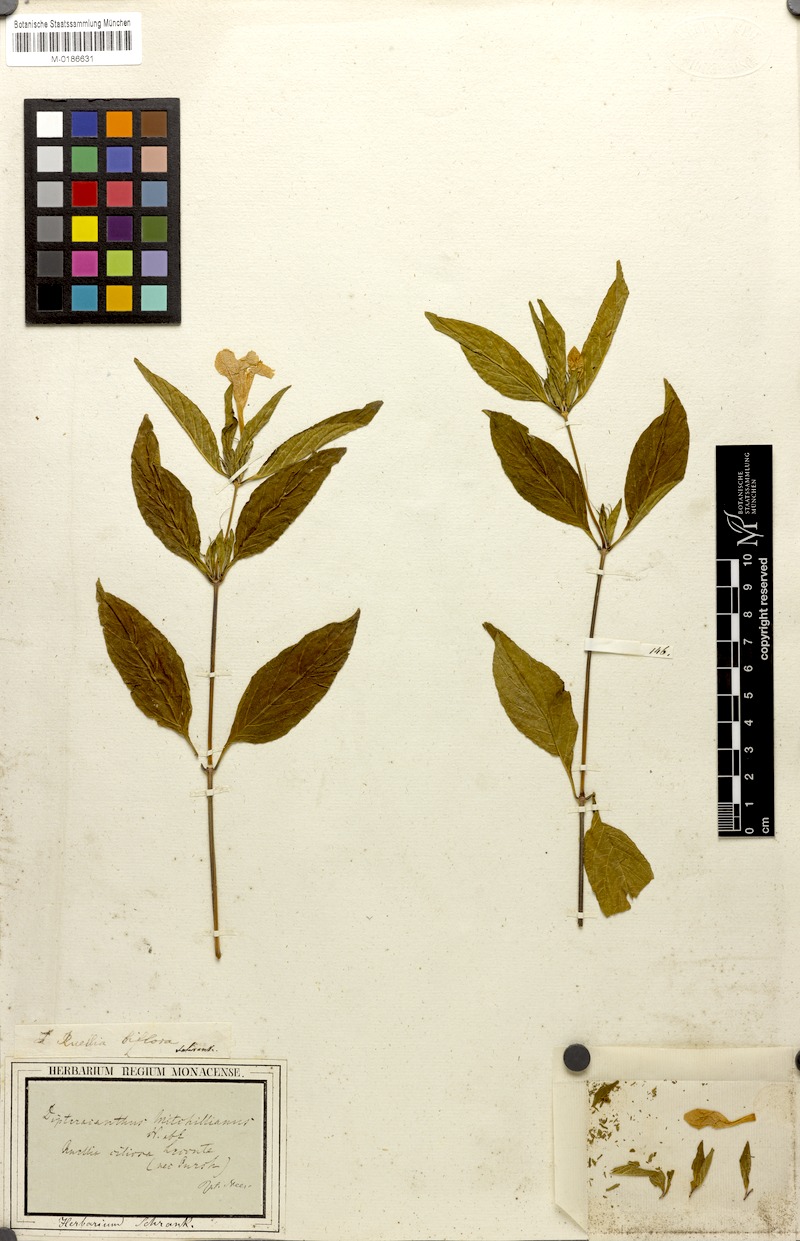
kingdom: Plantae
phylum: Tracheophyta
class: Magnoliopsida
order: Lamiales
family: Acanthaceae
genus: Ruellia
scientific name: Ruellia caroliniensis
